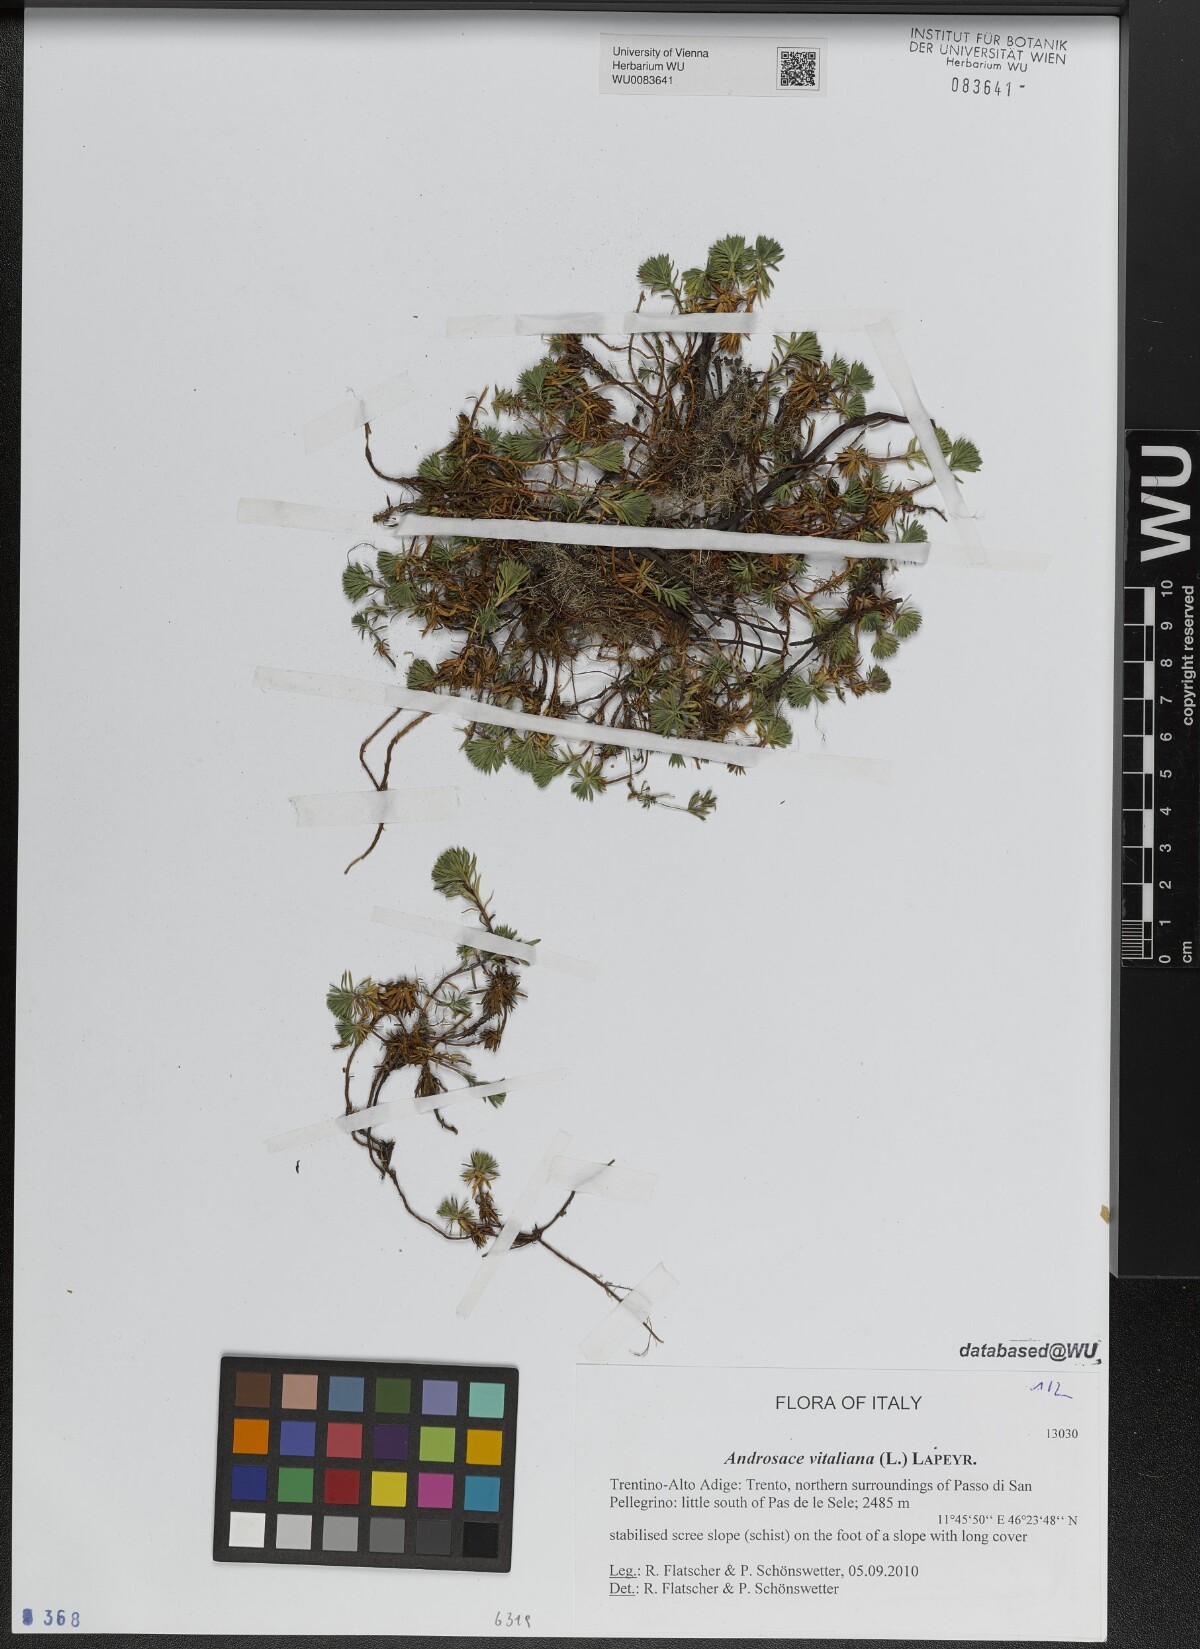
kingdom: Plantae
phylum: Tracheophyta
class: Magnoliopsida
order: Ericales
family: Primulaceae
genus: Androsace
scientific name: Androsace vitaliana
